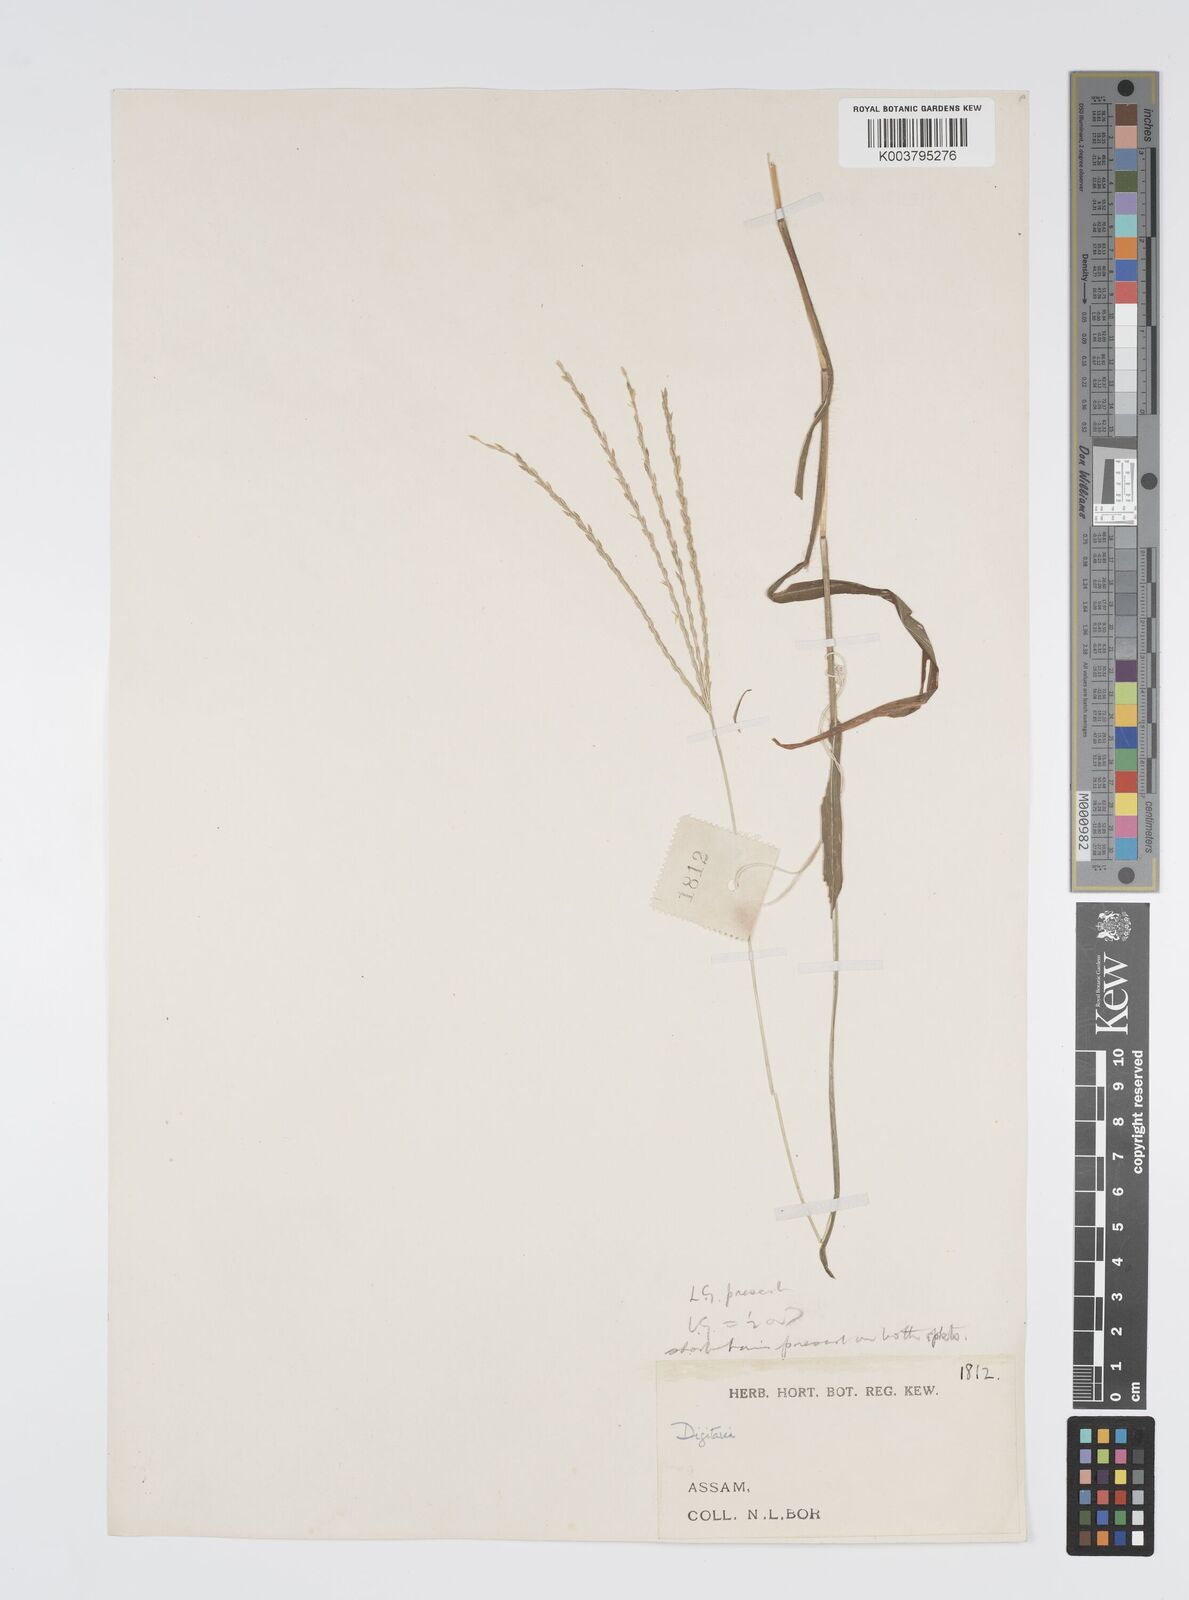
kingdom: Plantae
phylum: Tracheophyta
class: Liliopsida
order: Poales
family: Poaceae
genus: Digitaria
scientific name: Digitaria ciliaris
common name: Tropical finger-grass
